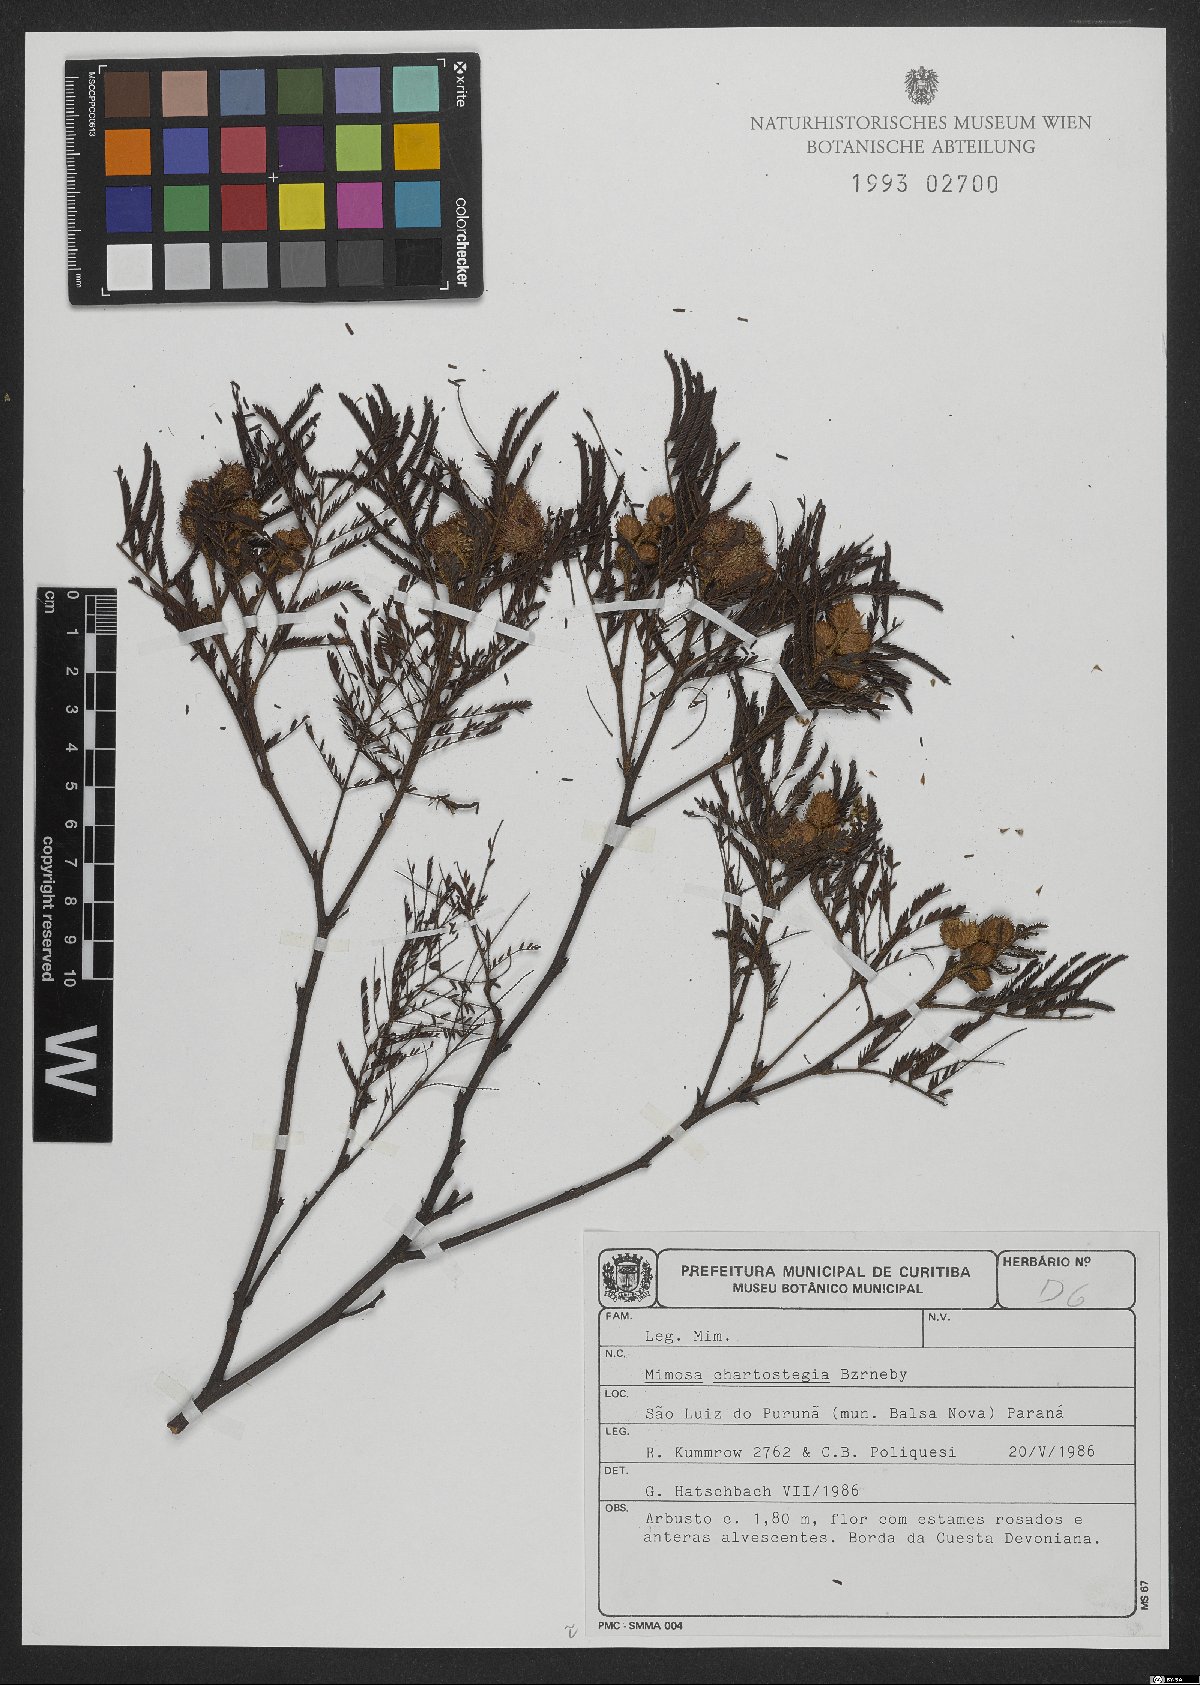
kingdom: Plantae
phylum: Tracheophyta
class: Magnoliopsida
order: Fabales
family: Fabaceae
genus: Mimosa
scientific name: Mimosa chartostegia
